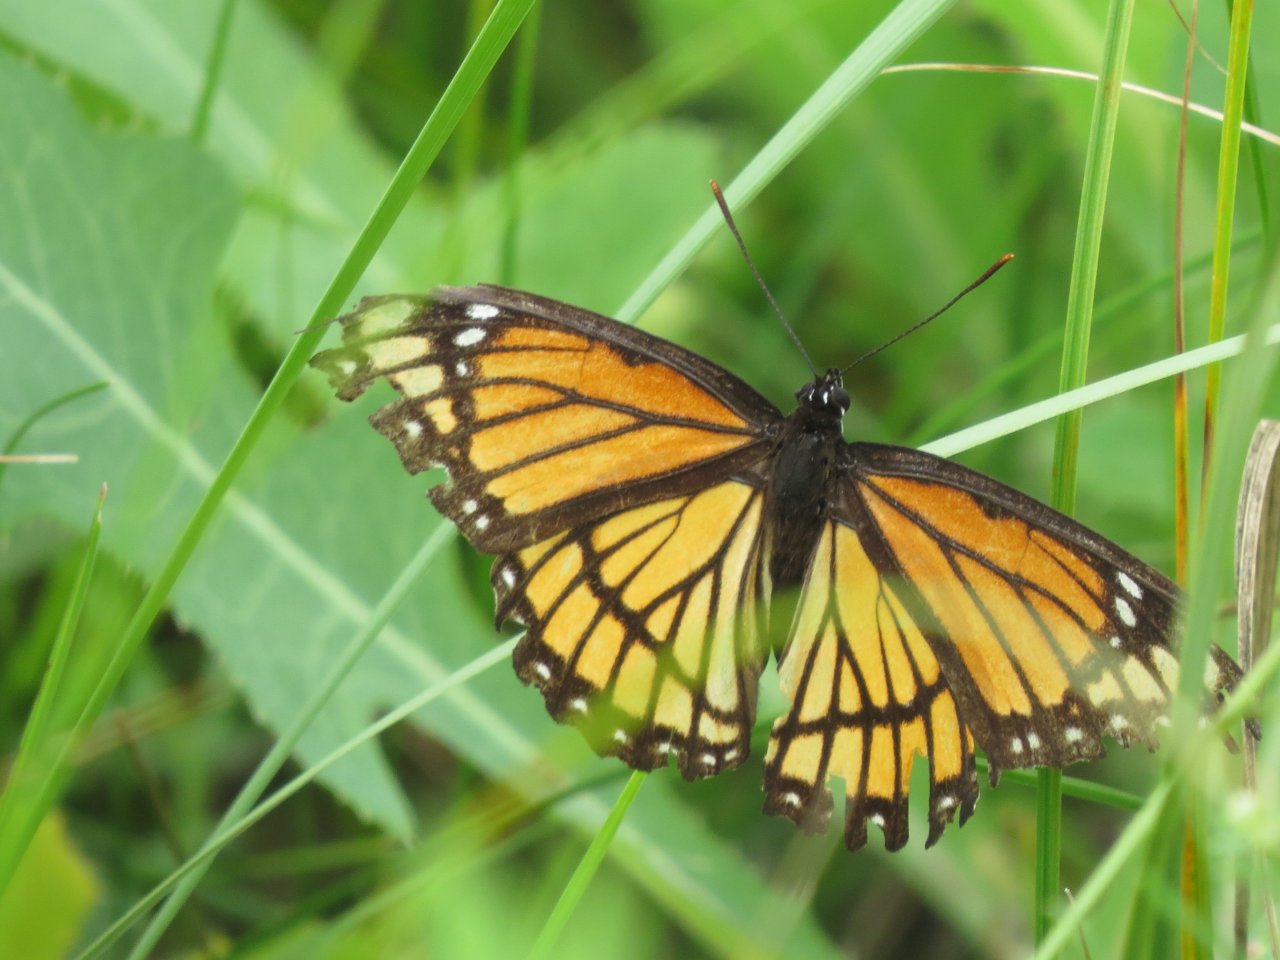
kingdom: Animalia
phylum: Arthropoda
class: Insecta
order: Lepidoptera
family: Nymphalidae
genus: Limenitis
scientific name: Limenitis archippus
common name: Viceroy
